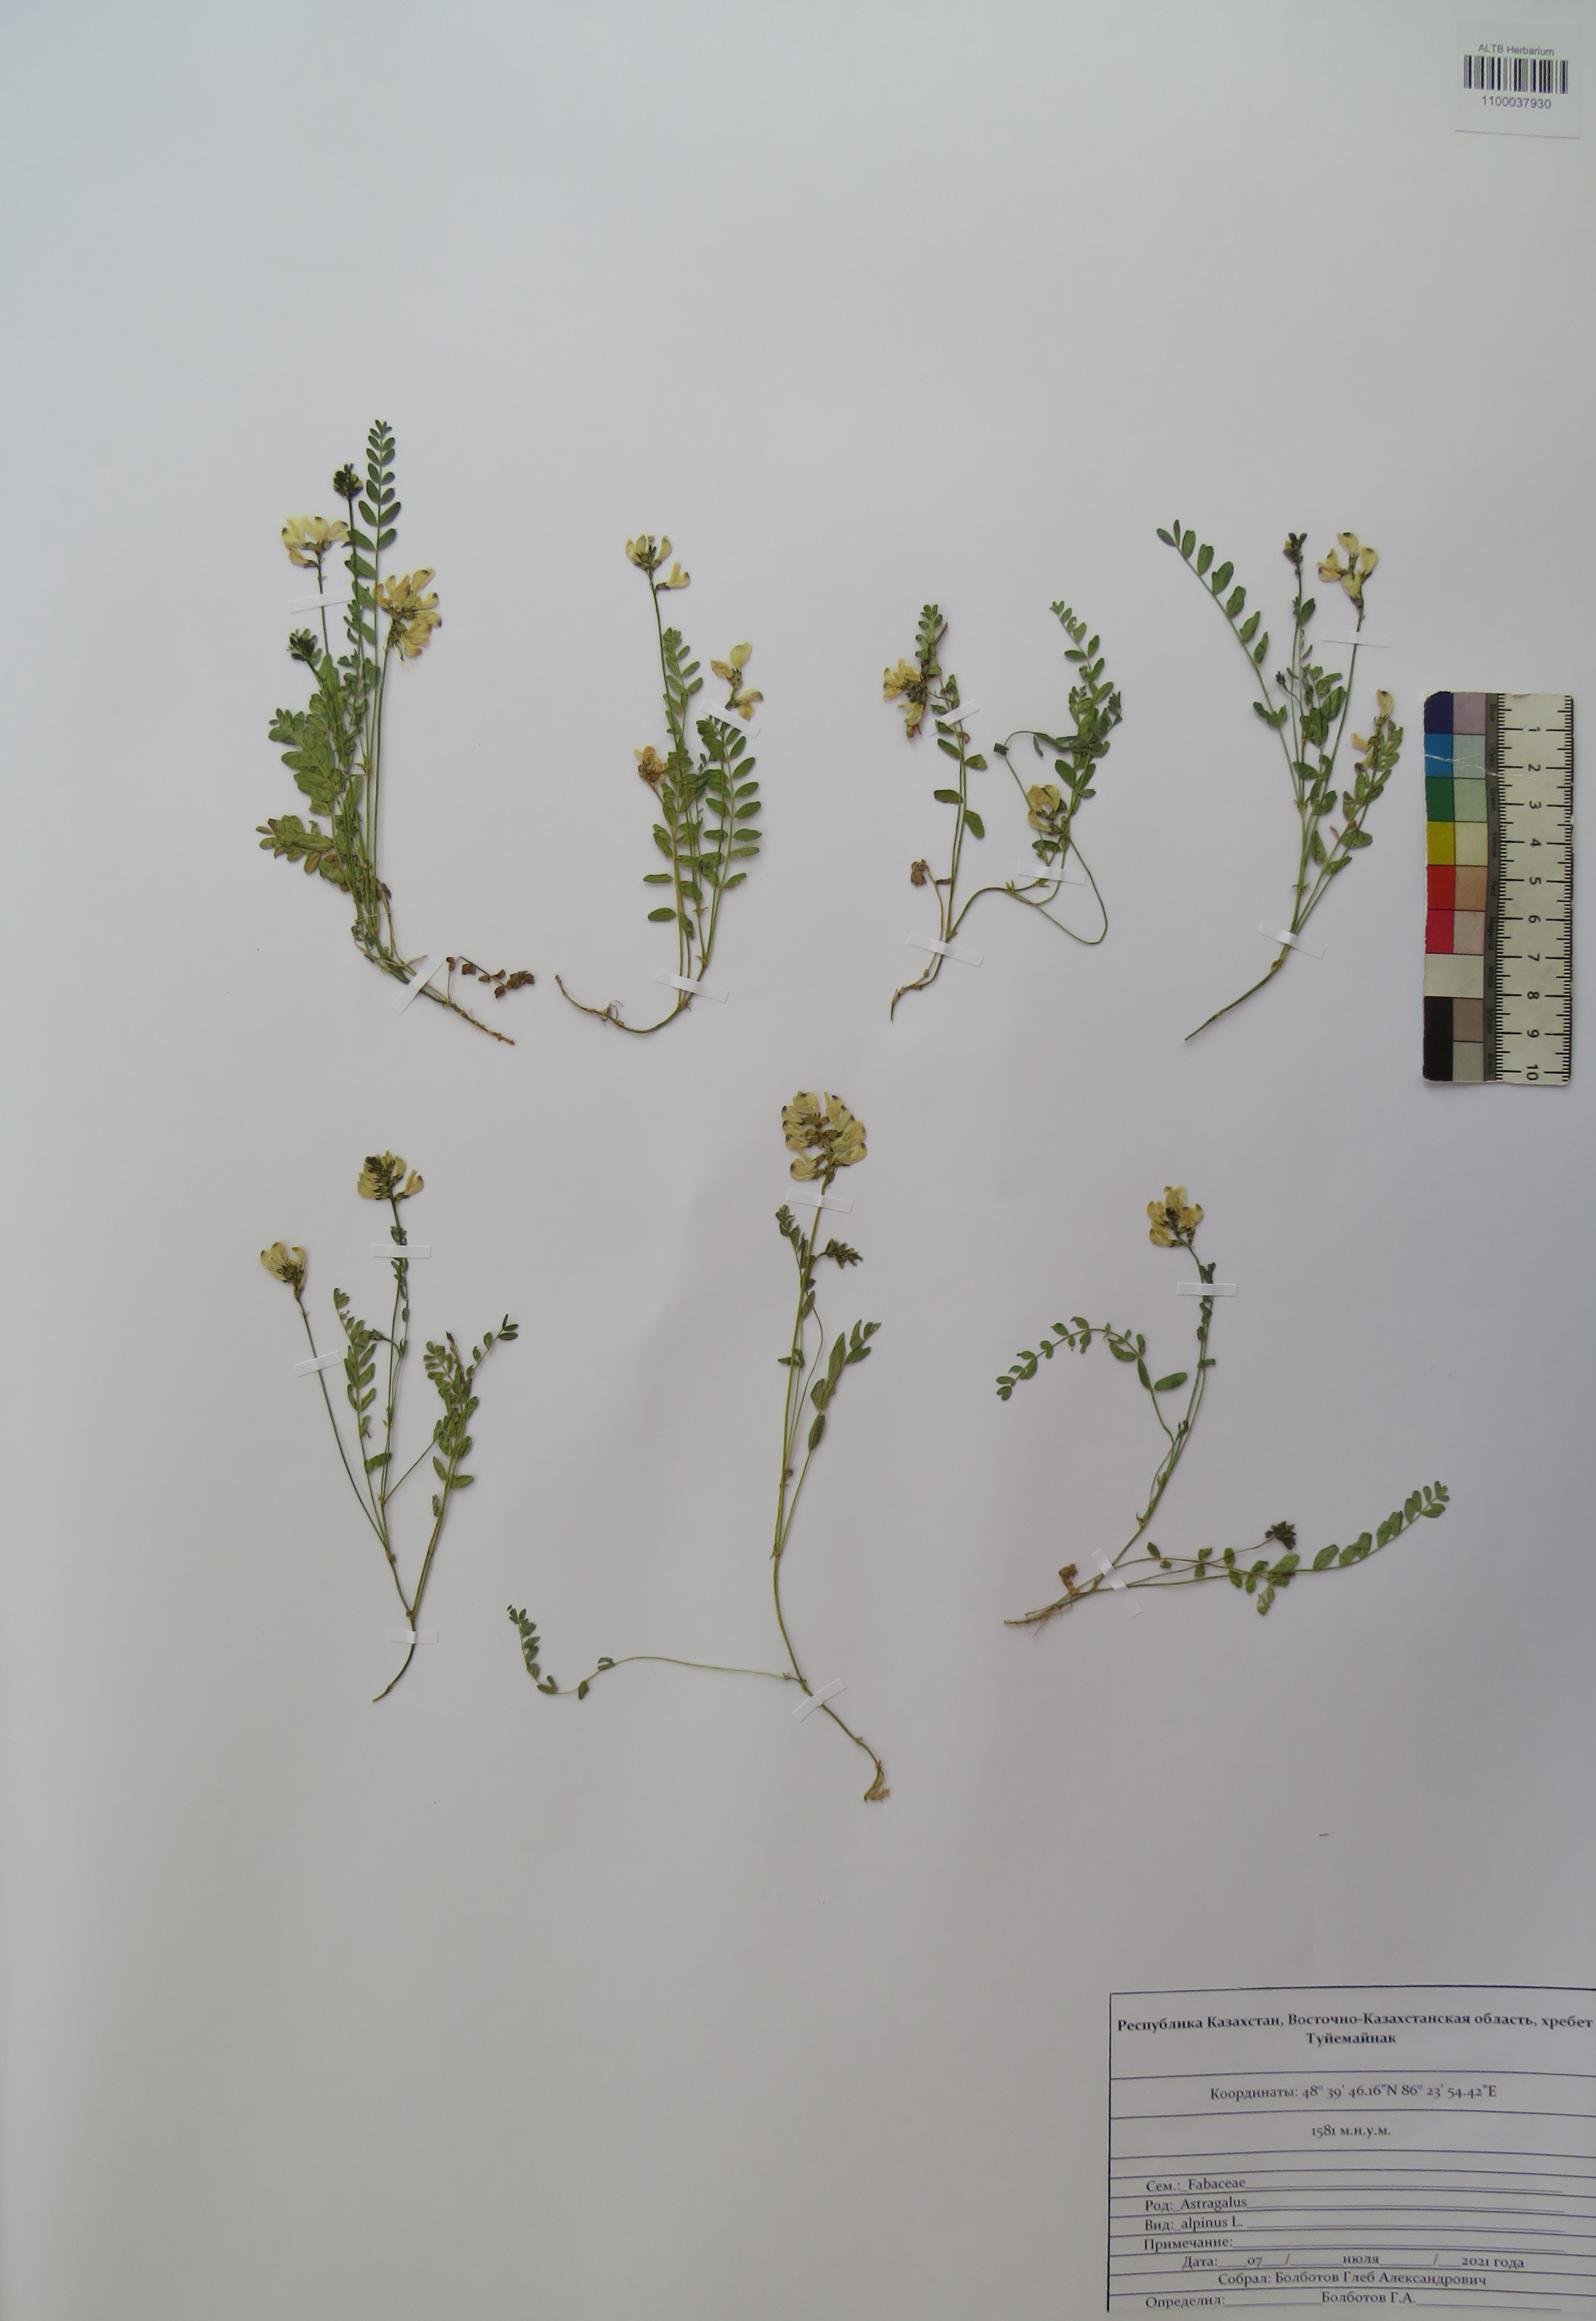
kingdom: Plantae
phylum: Tracheophyta
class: Magnoliopsida
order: Fabales
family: Fabaceae
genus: Astragalus
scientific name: Astragalus alpinus
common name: Alpine milk-vetch
